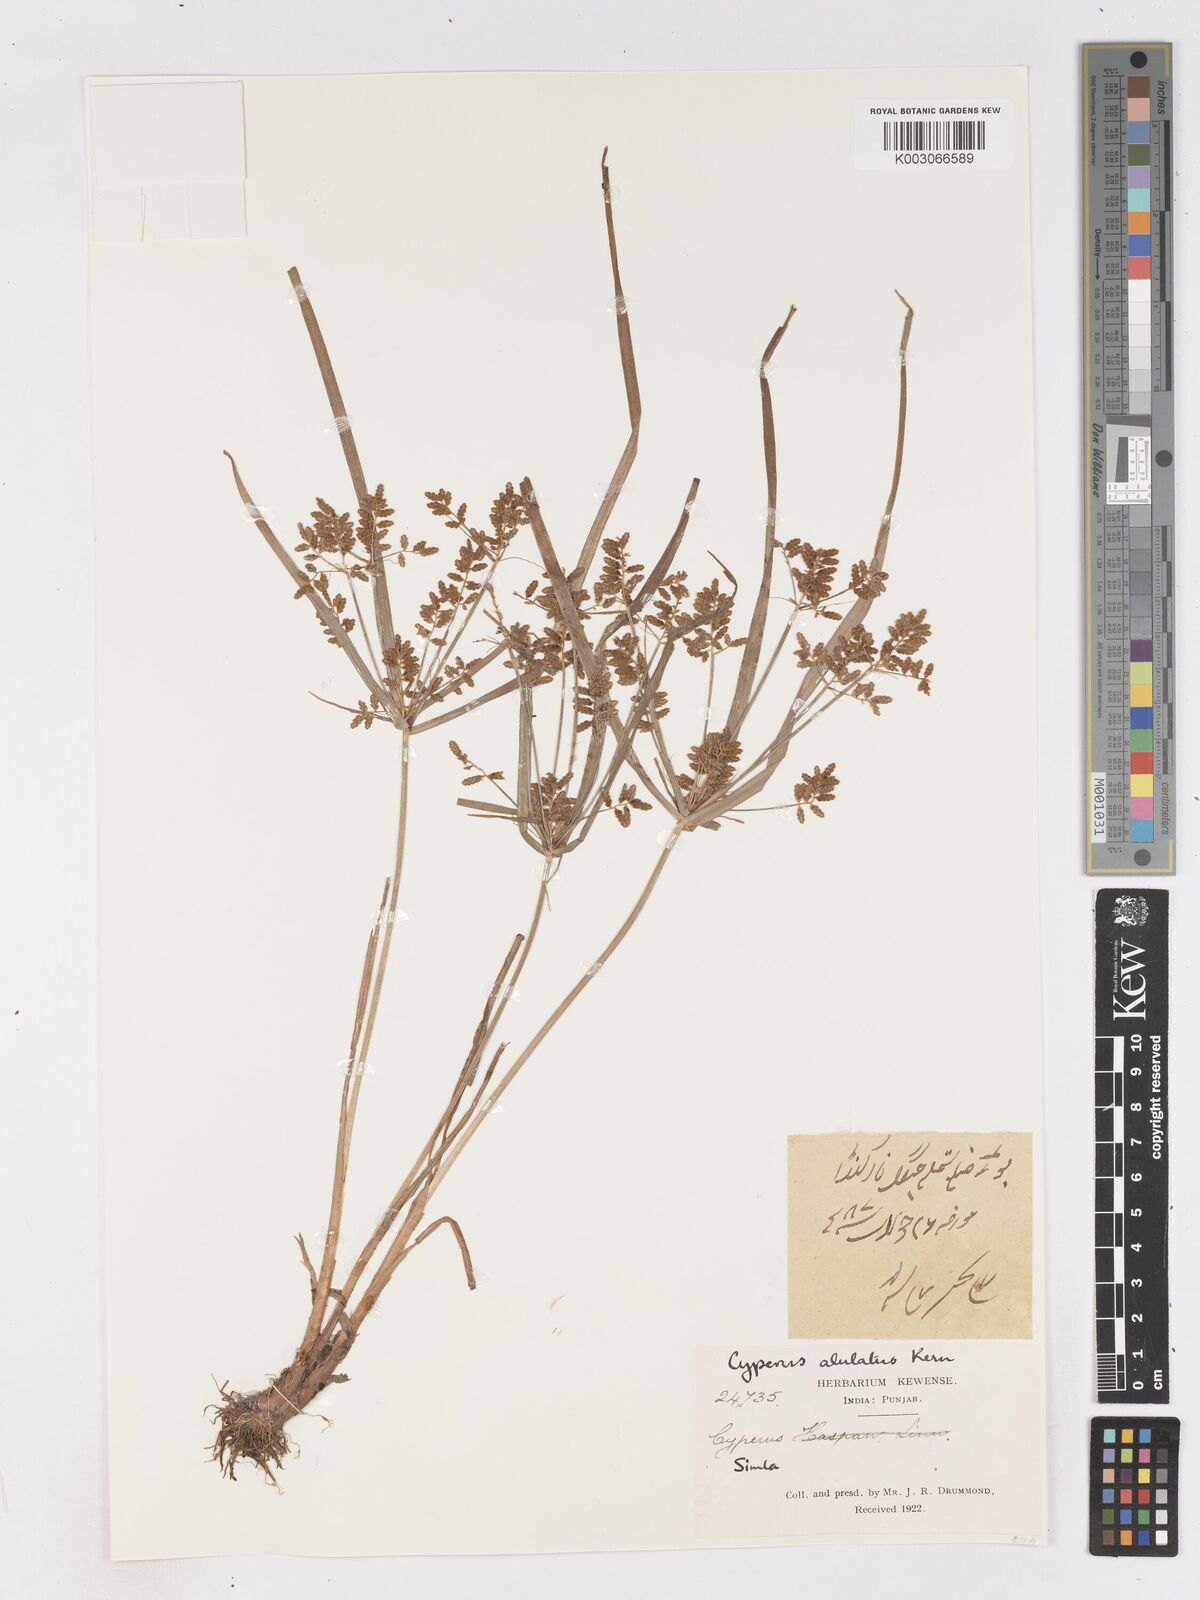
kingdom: Plantae
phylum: Tracheophyta
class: Liliopsida
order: Poales
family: Cyperaceae
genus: Cyperus
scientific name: Cyperus alulatus
